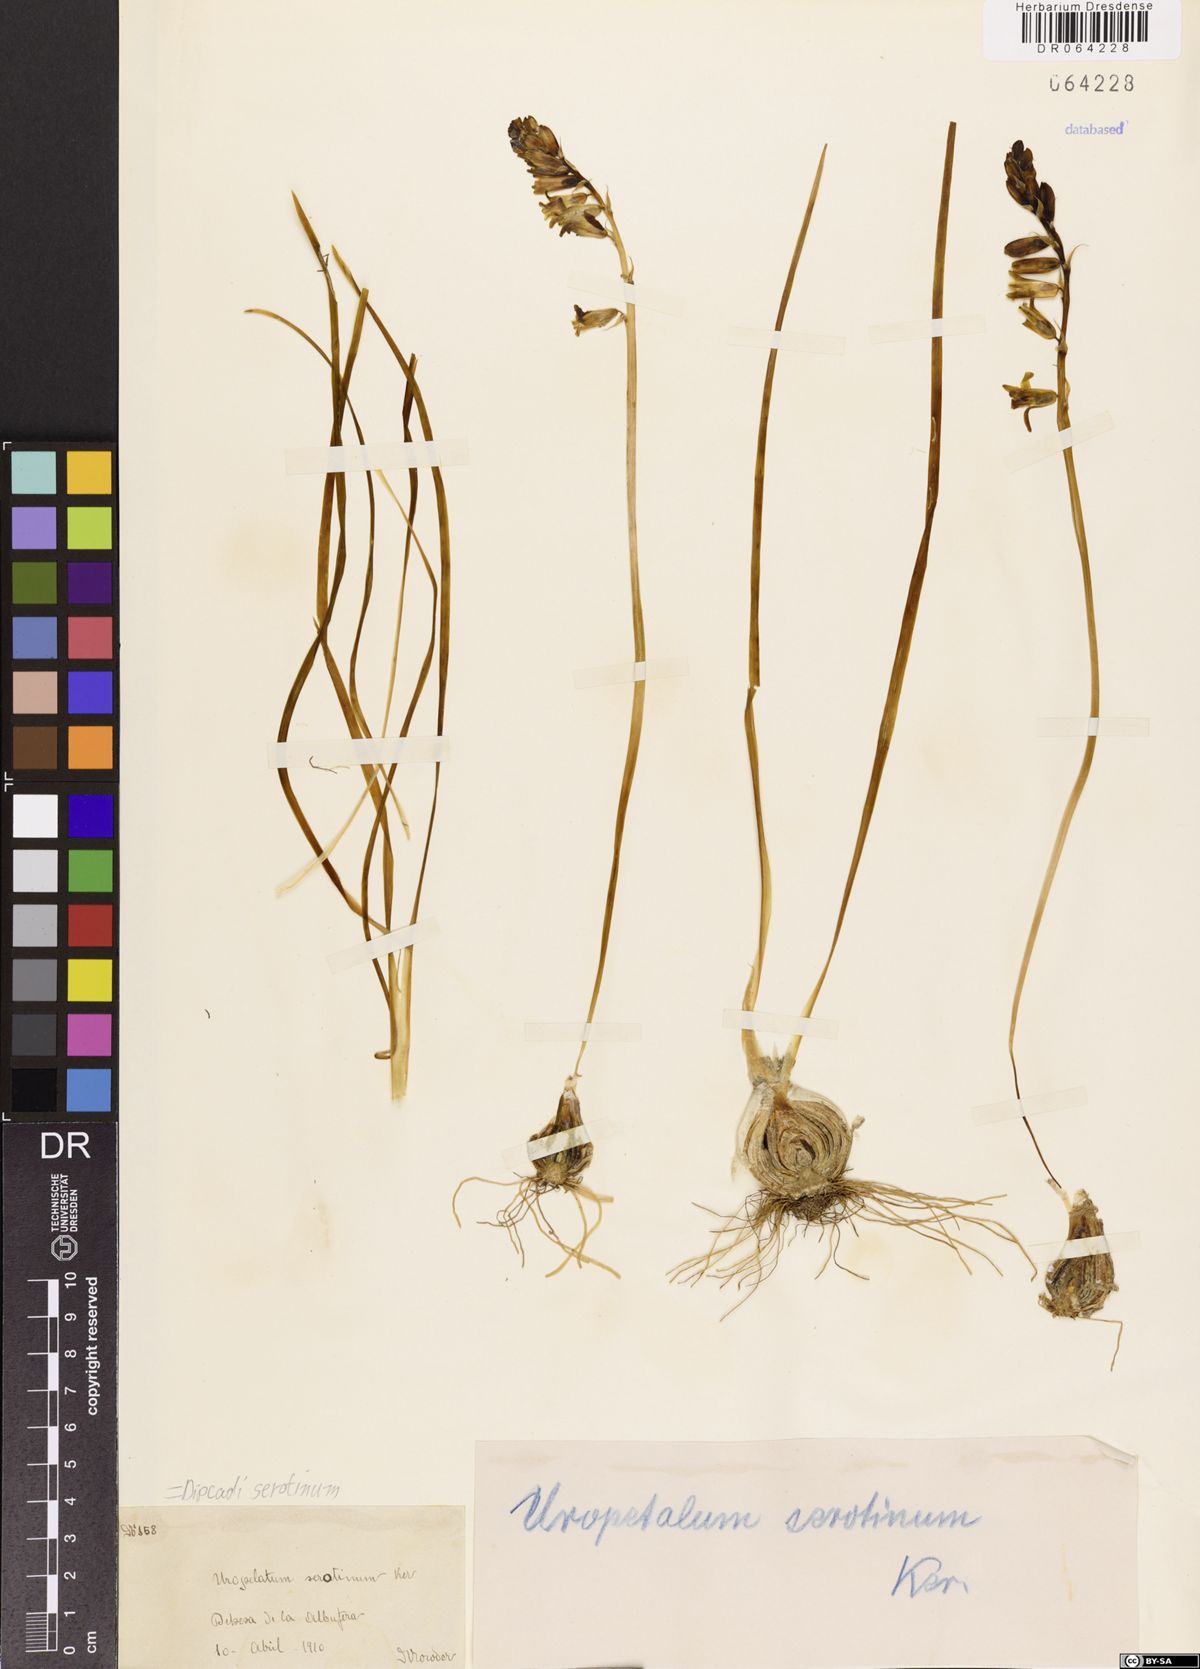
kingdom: Plantae
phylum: Tracheophyta
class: Liliopsida
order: Asparagales
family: Asparagaceae
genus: Dipcadi
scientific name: Dipcadi serotinum
